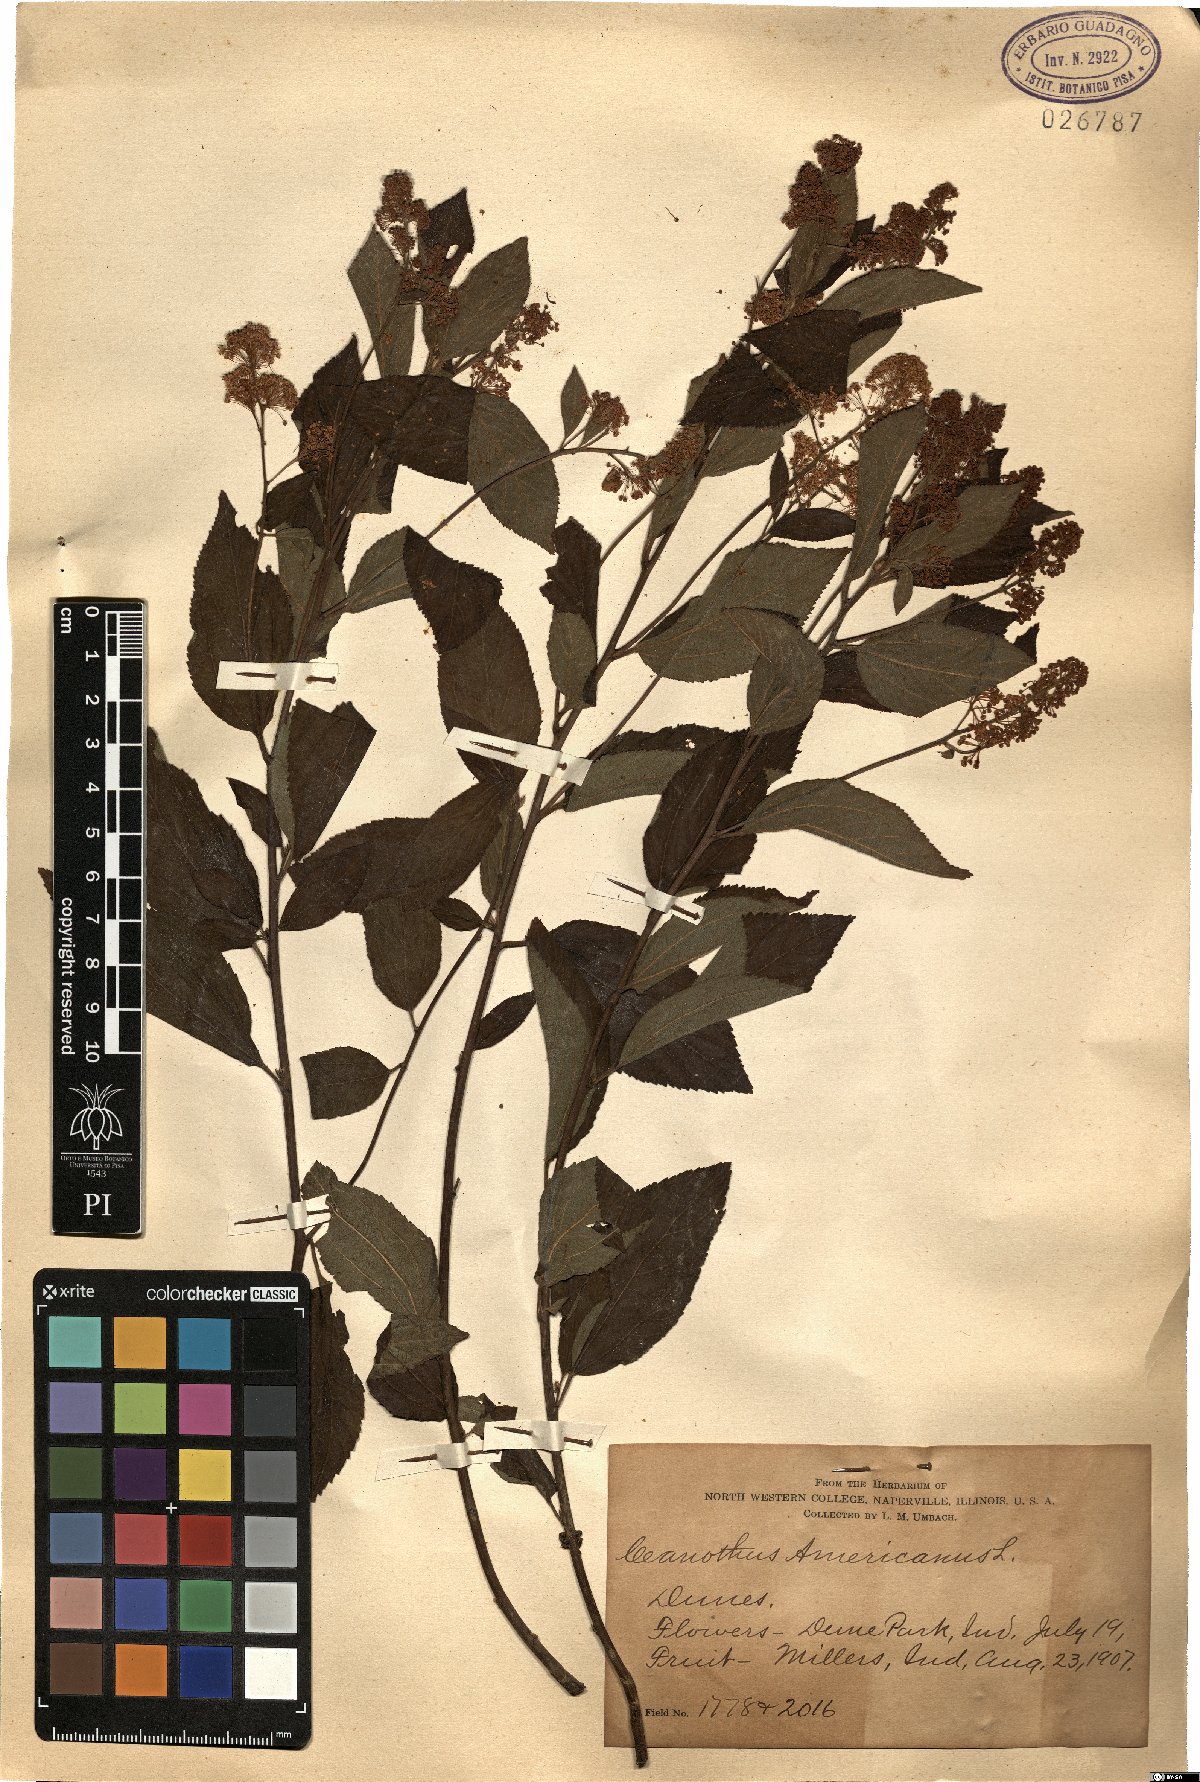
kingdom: Plantae
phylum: Tracheophyta
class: Magnoliopsida
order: Rosales
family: Rhamnaceae
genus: Ceanothus
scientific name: Ceanothus americanus
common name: Redroot
